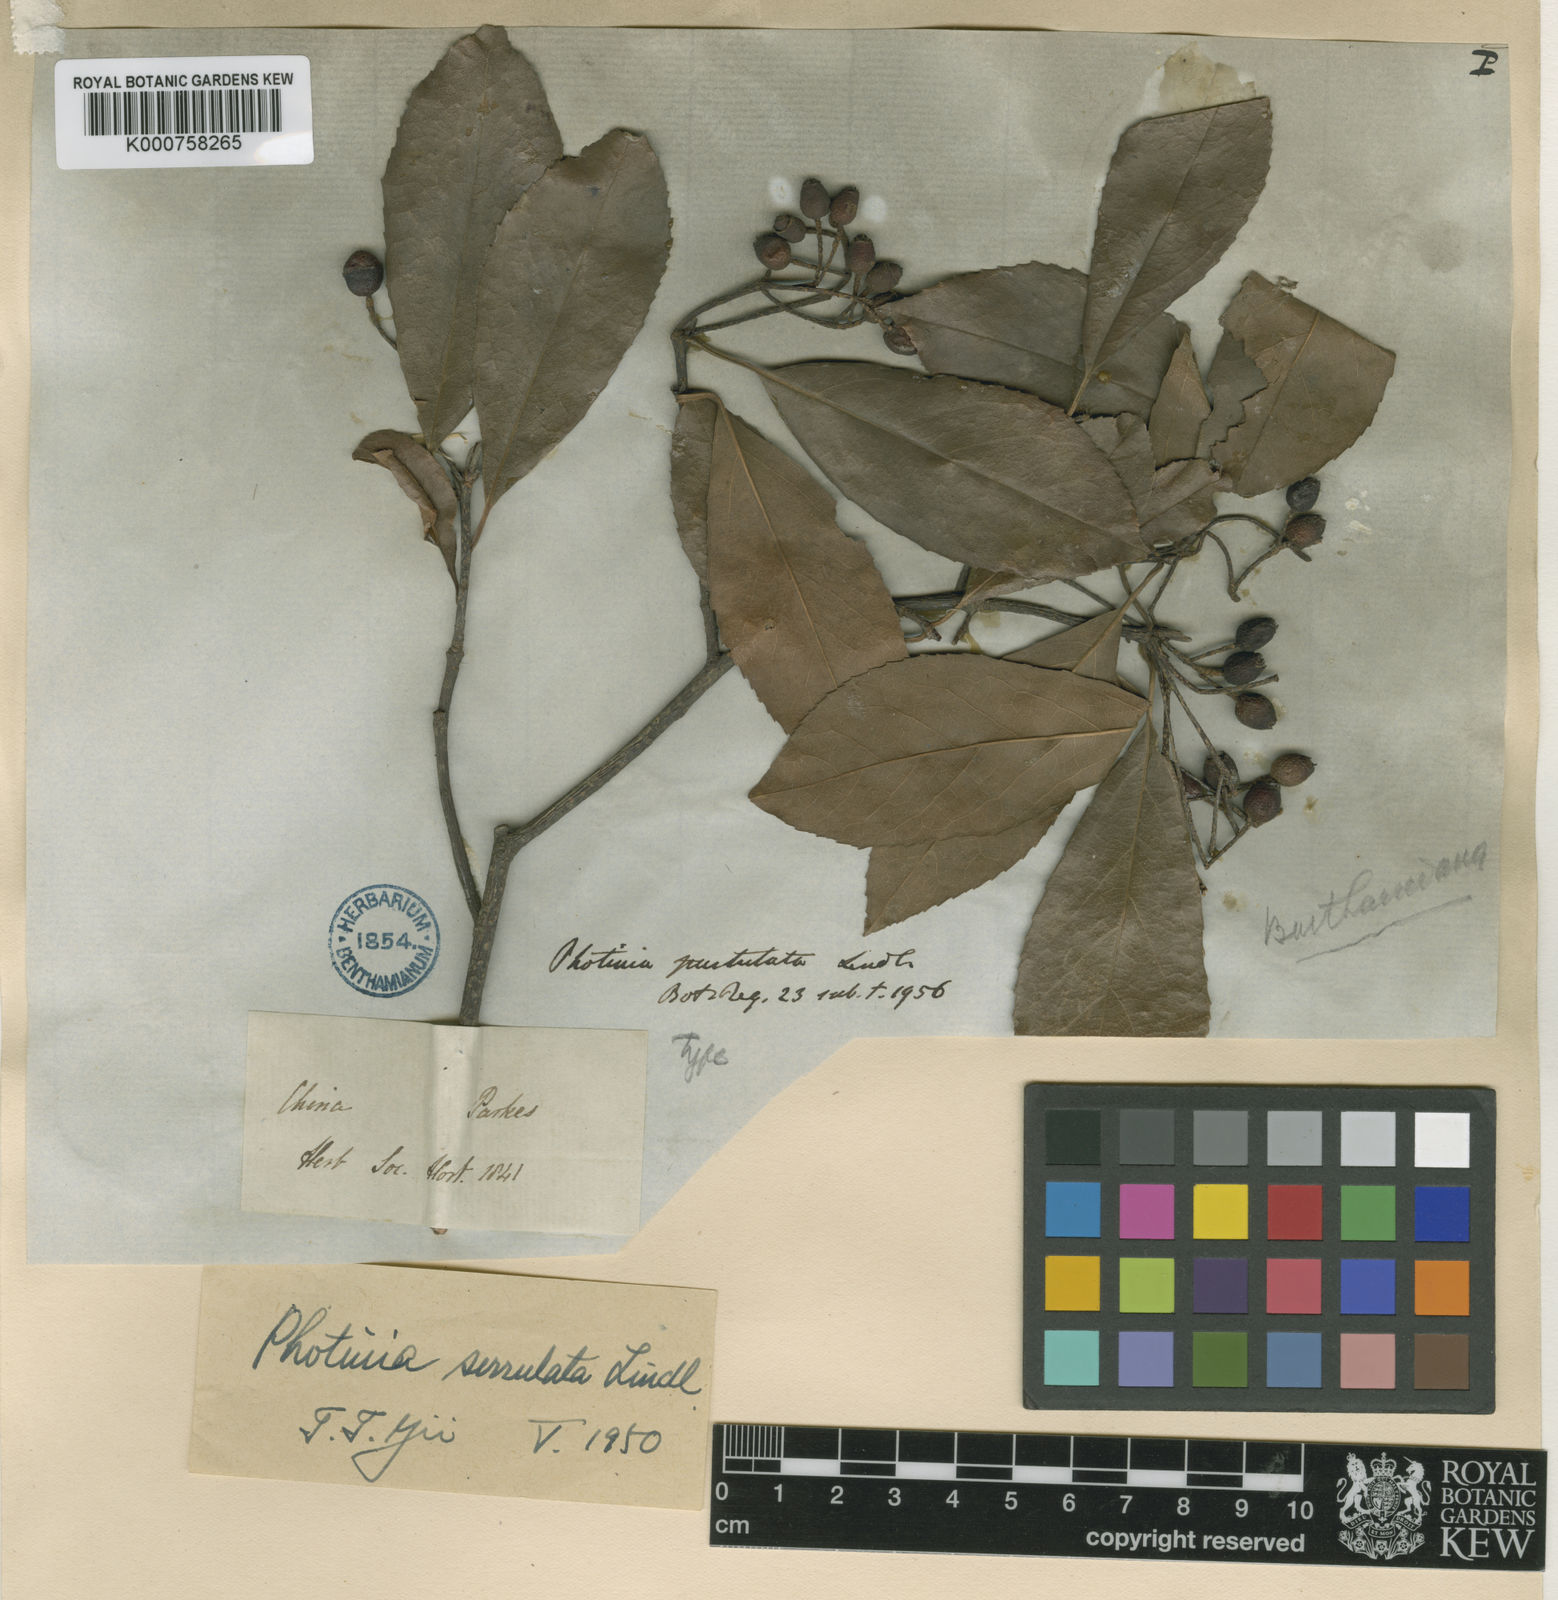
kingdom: Plantae
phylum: Tracheophyta
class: Magnoliopsida
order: Rosales
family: Rosaceae
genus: Photinia
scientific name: Photinia serratifolia
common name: Taiwanese photinia
